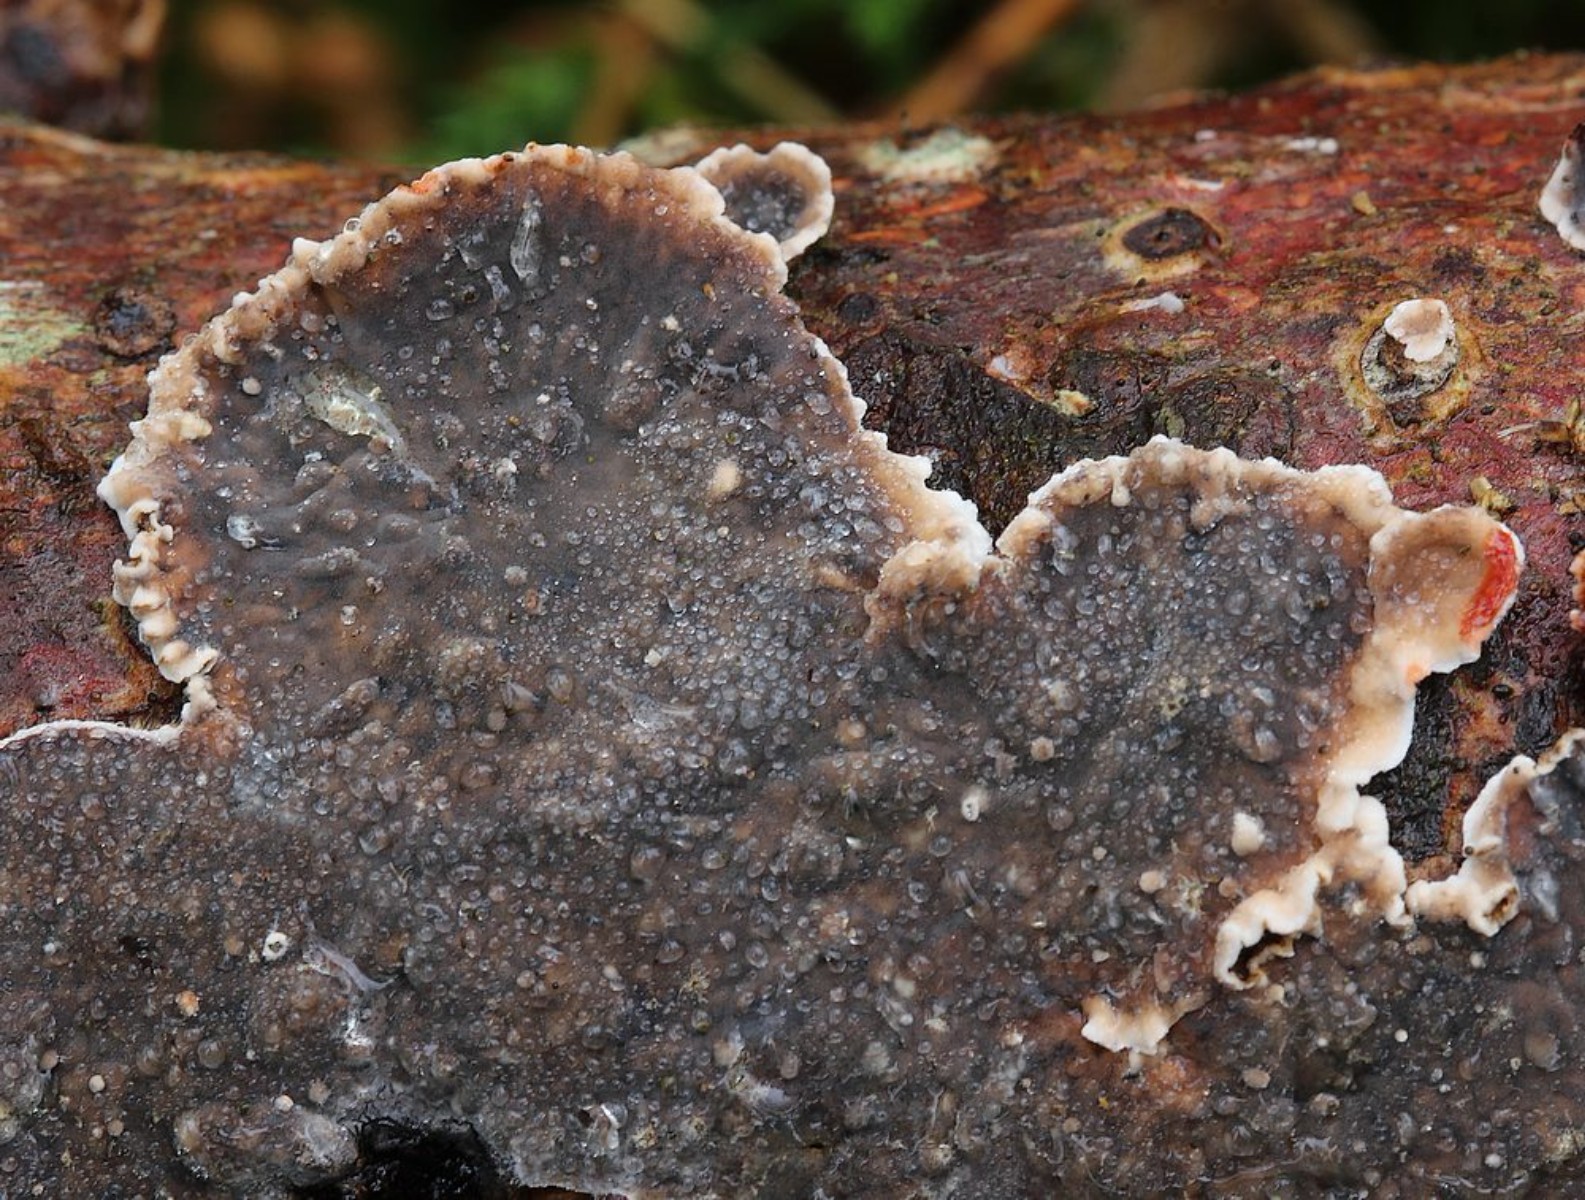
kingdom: Fungi
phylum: Basidiomycota
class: Agaricomycetes
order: Russulales
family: Stereaceae
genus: Stereum
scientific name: Stereum sanguinolentum
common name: blødende lædersvamp
